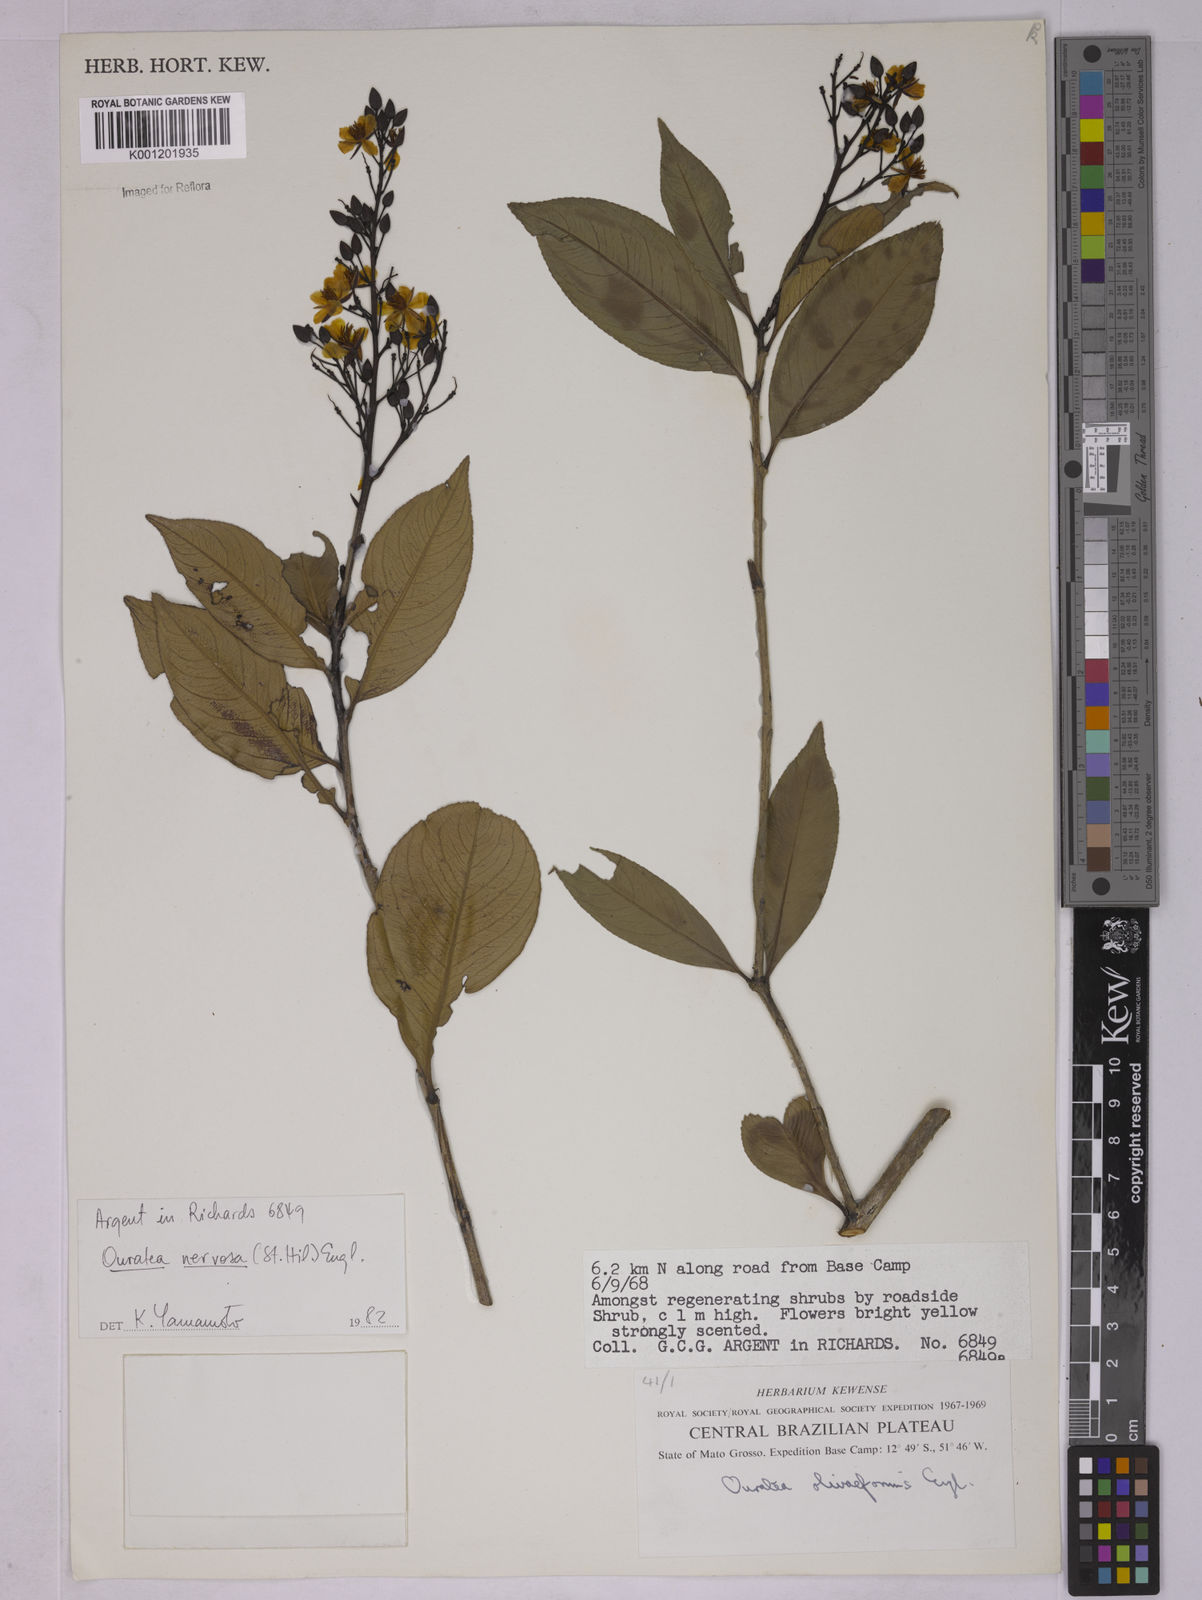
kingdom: Plantae
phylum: Tracheophyta
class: Magnoliopsida
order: Malpighiales
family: Ochnaceae
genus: Ouratea
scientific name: Ouratea nervosa
